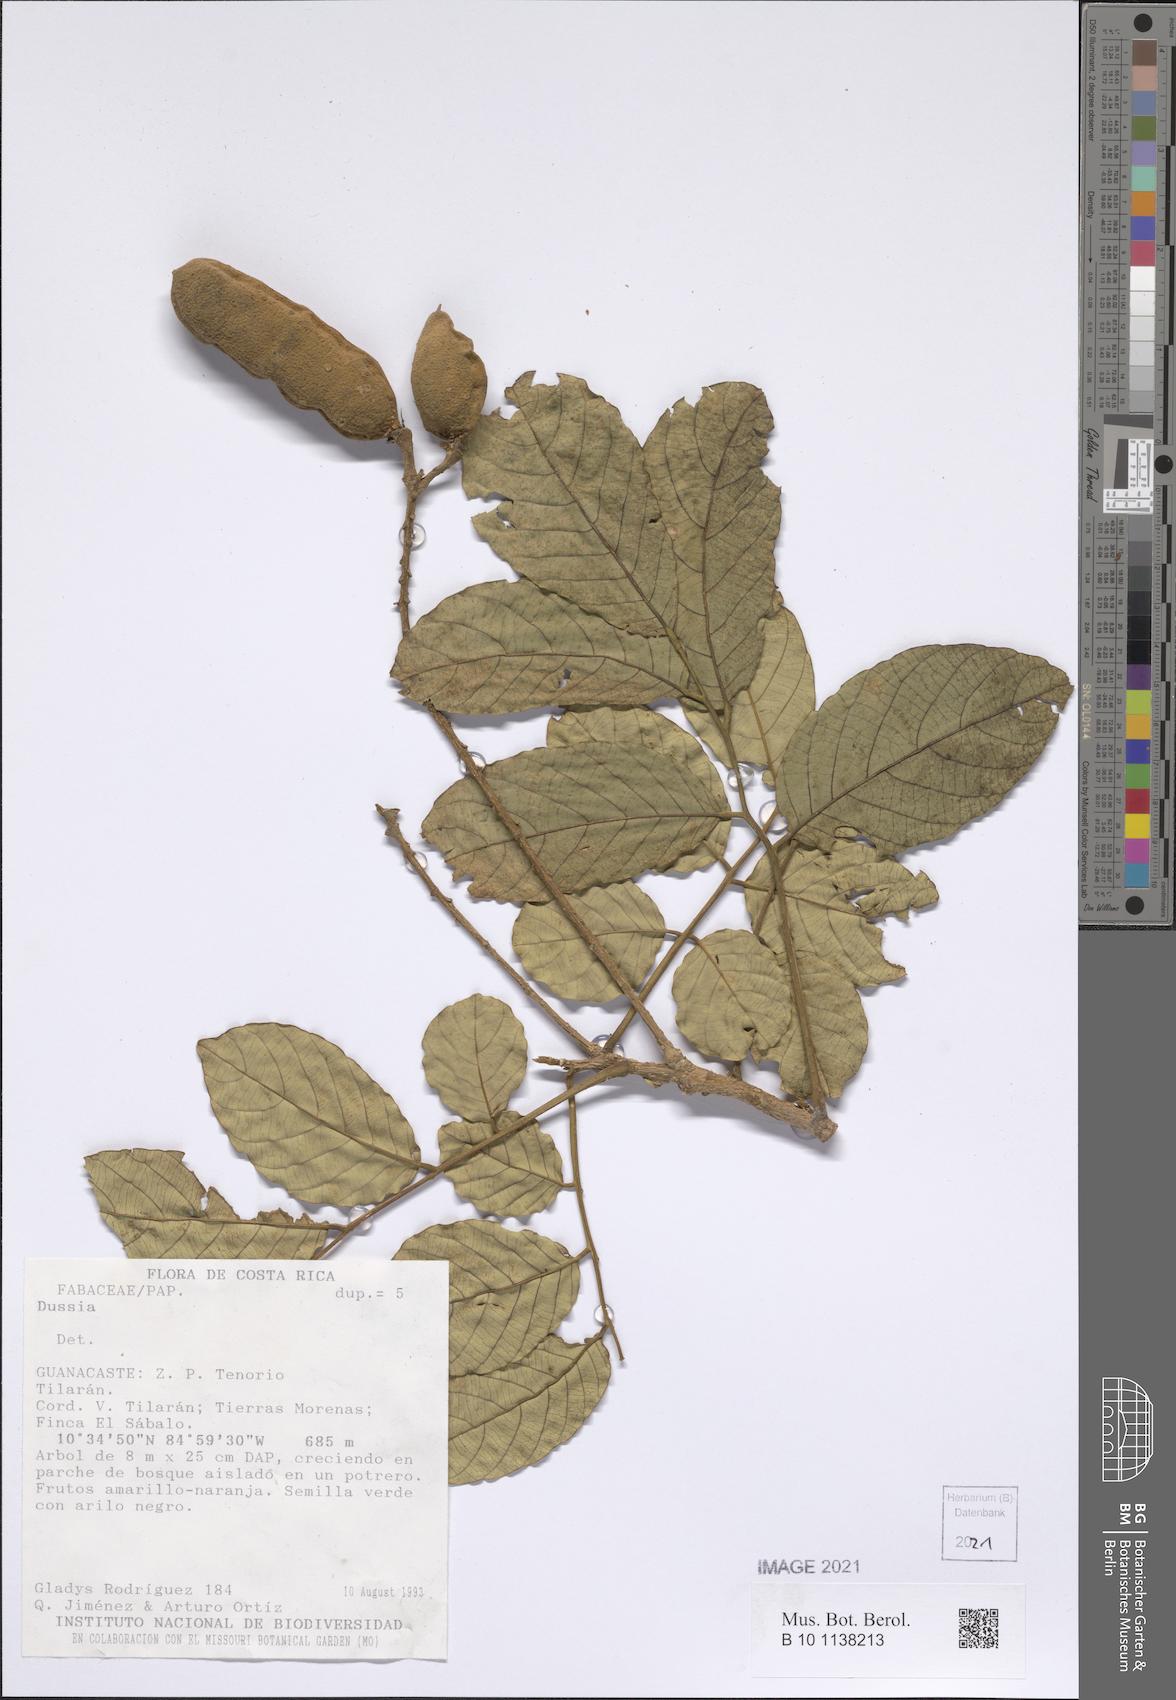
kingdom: Plantae
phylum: Tracheophyta
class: Magnoliopsida
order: Fabales
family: Fabaceae
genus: Dussia
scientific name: Dussia
